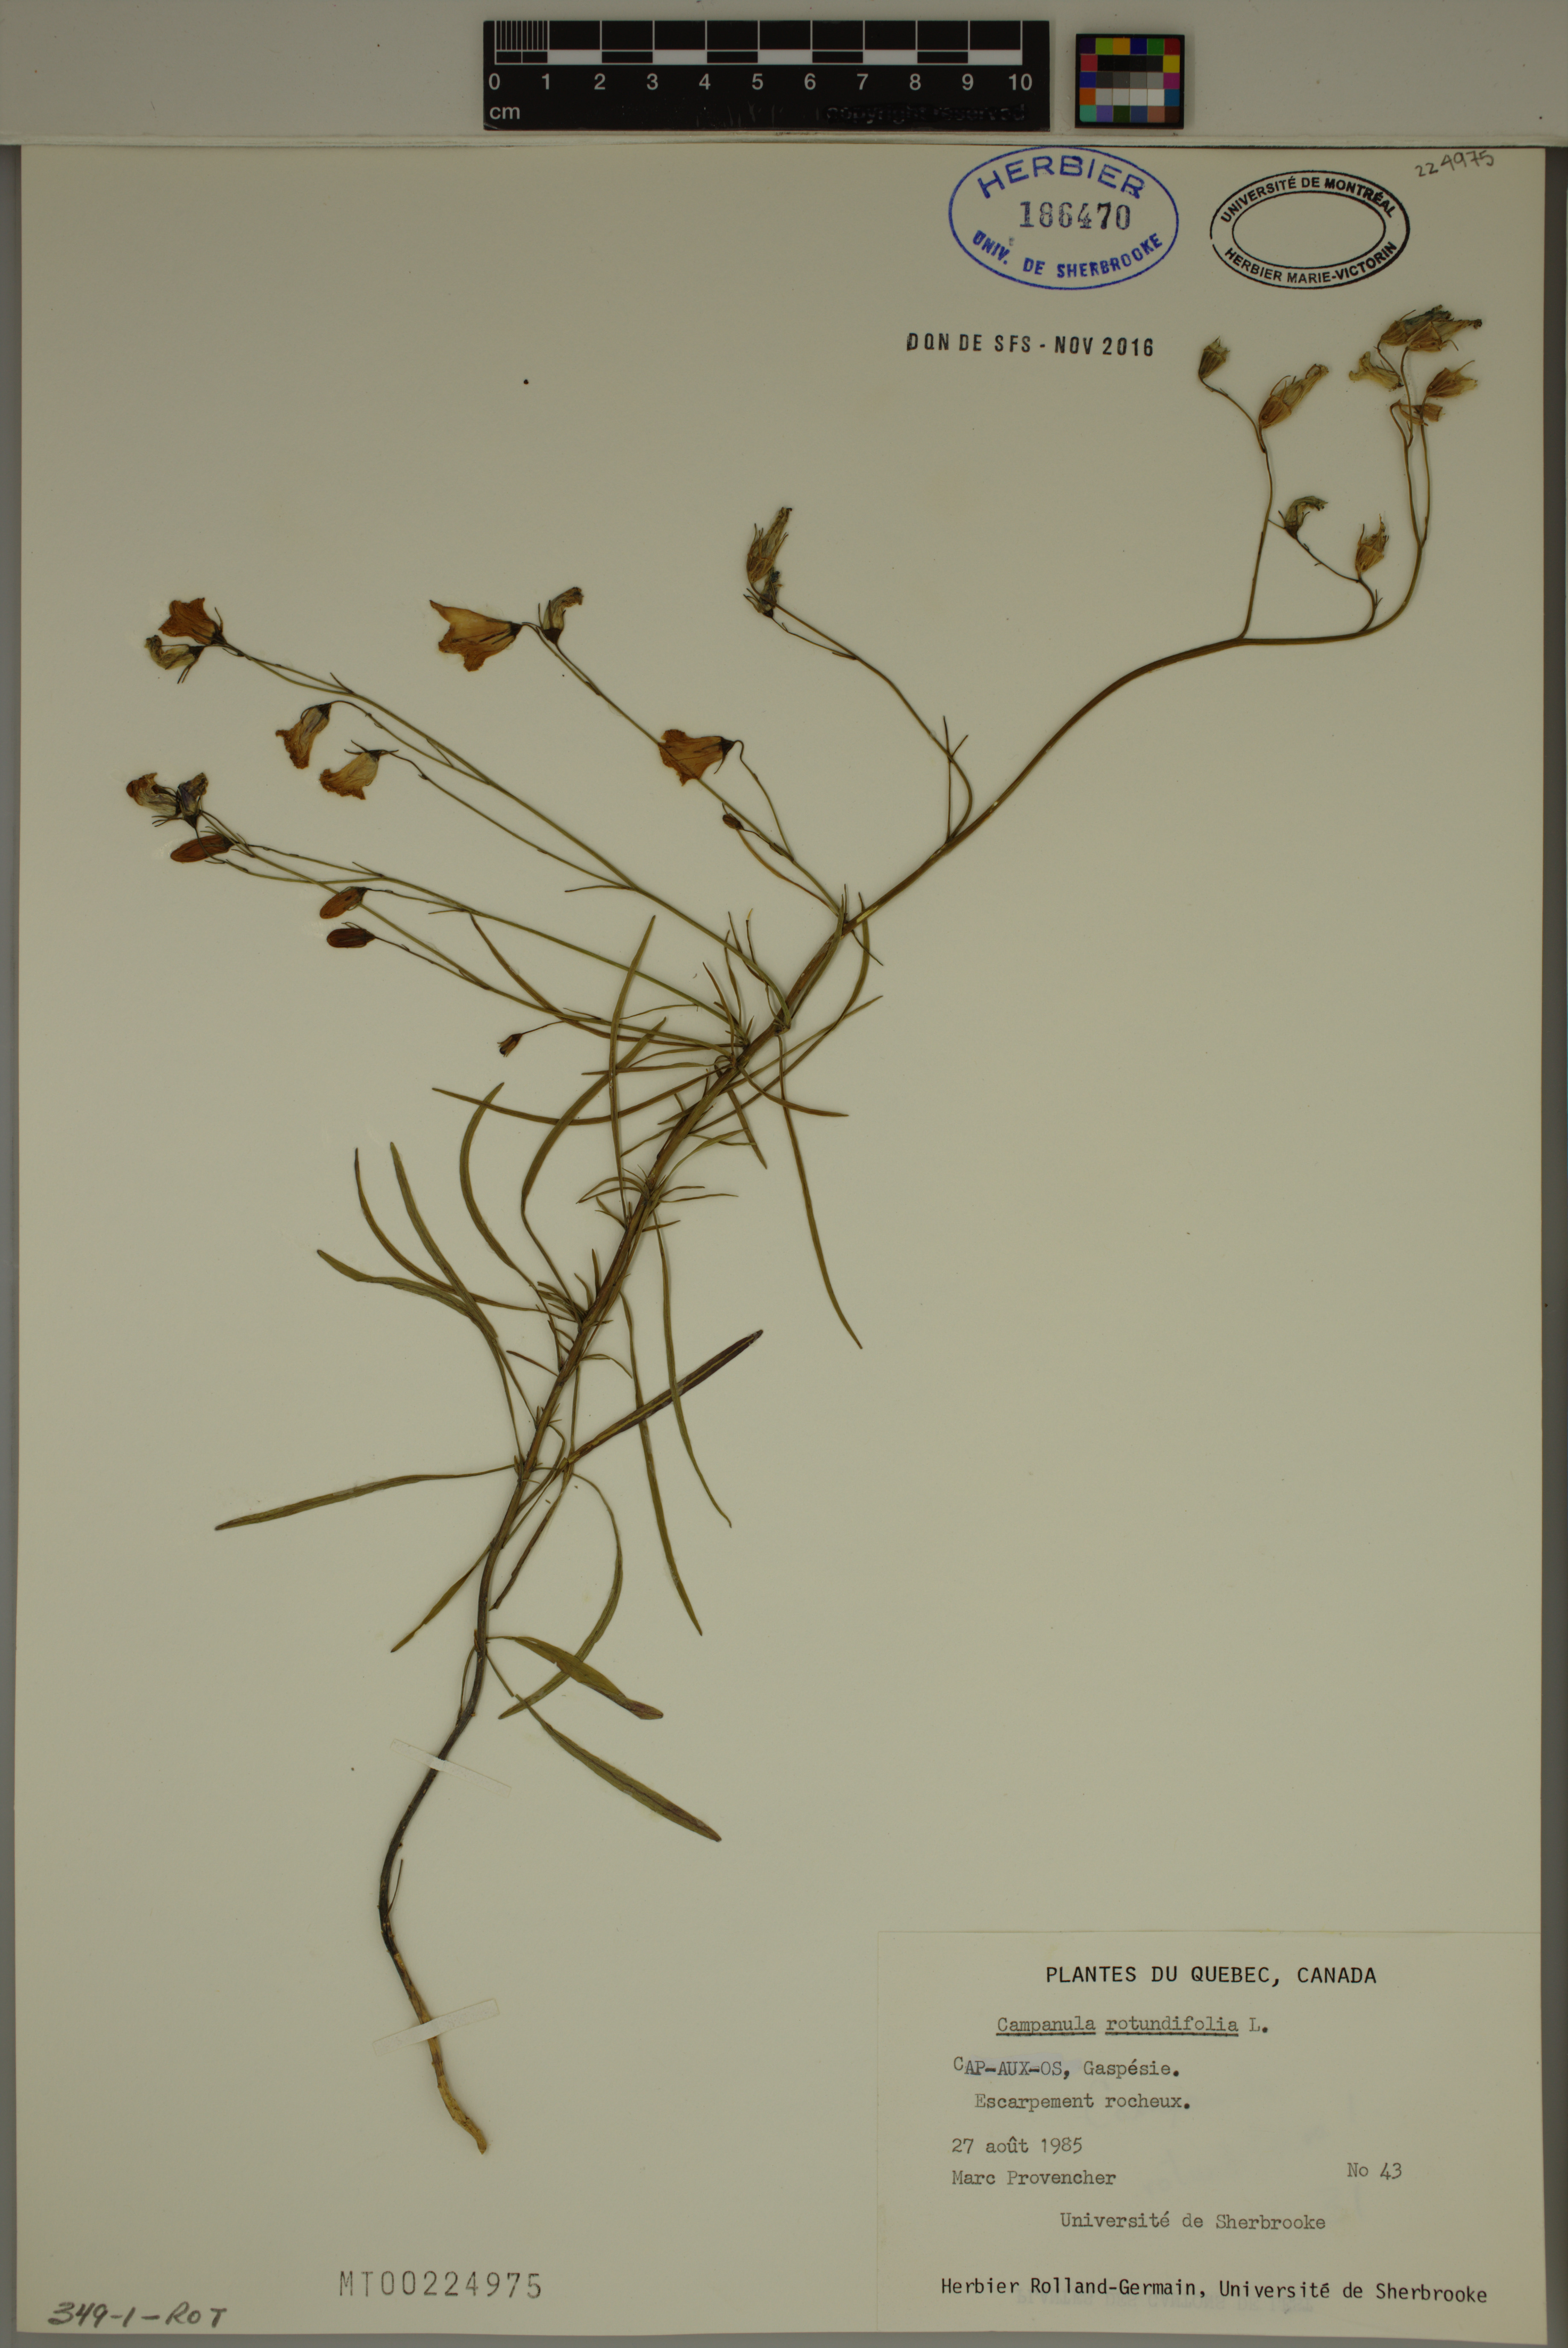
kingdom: Plantae
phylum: Tracheophyta
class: Magnoliopsida
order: Asterales
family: Campanulaceae
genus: Campanula
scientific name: Campanula rotundifolia
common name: Harebell
